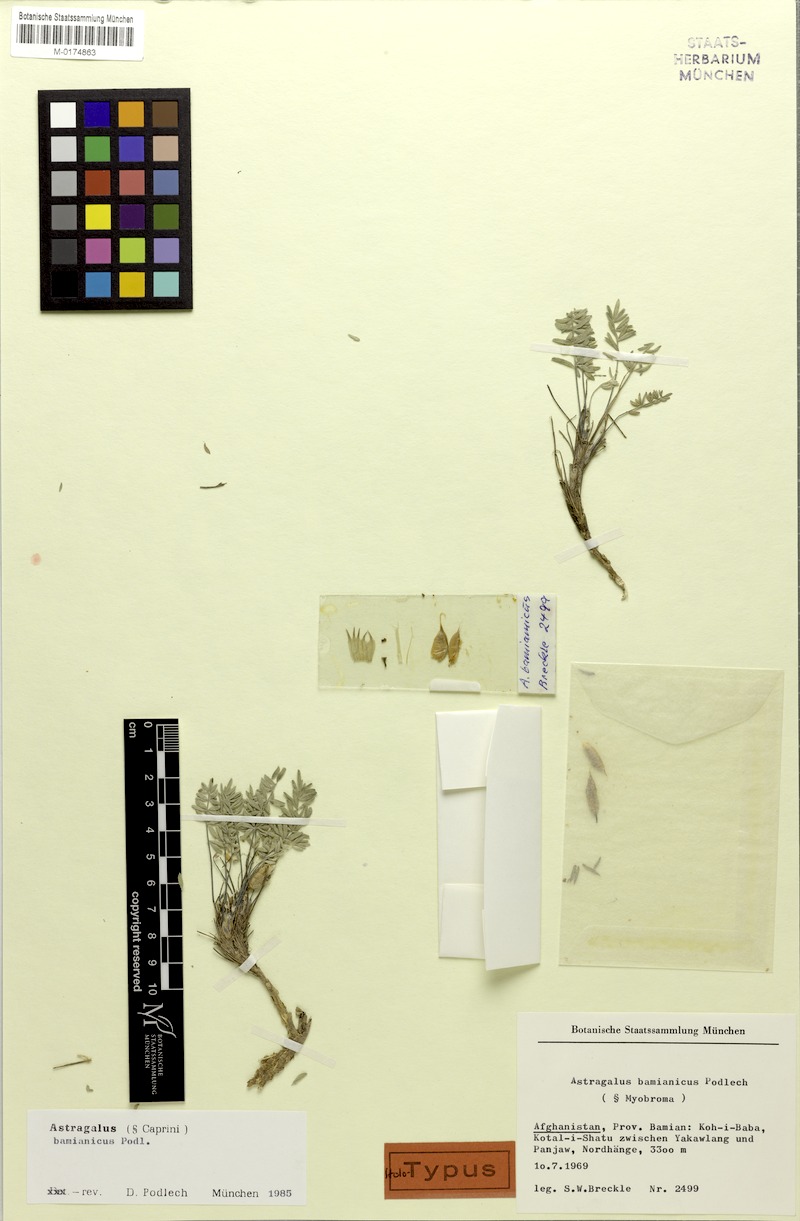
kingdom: Plantae
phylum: Tracheophyta
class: Magnoliopsida
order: Fabales
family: Fabaceae
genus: Astragalus
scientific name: Astragalus bamianicus
